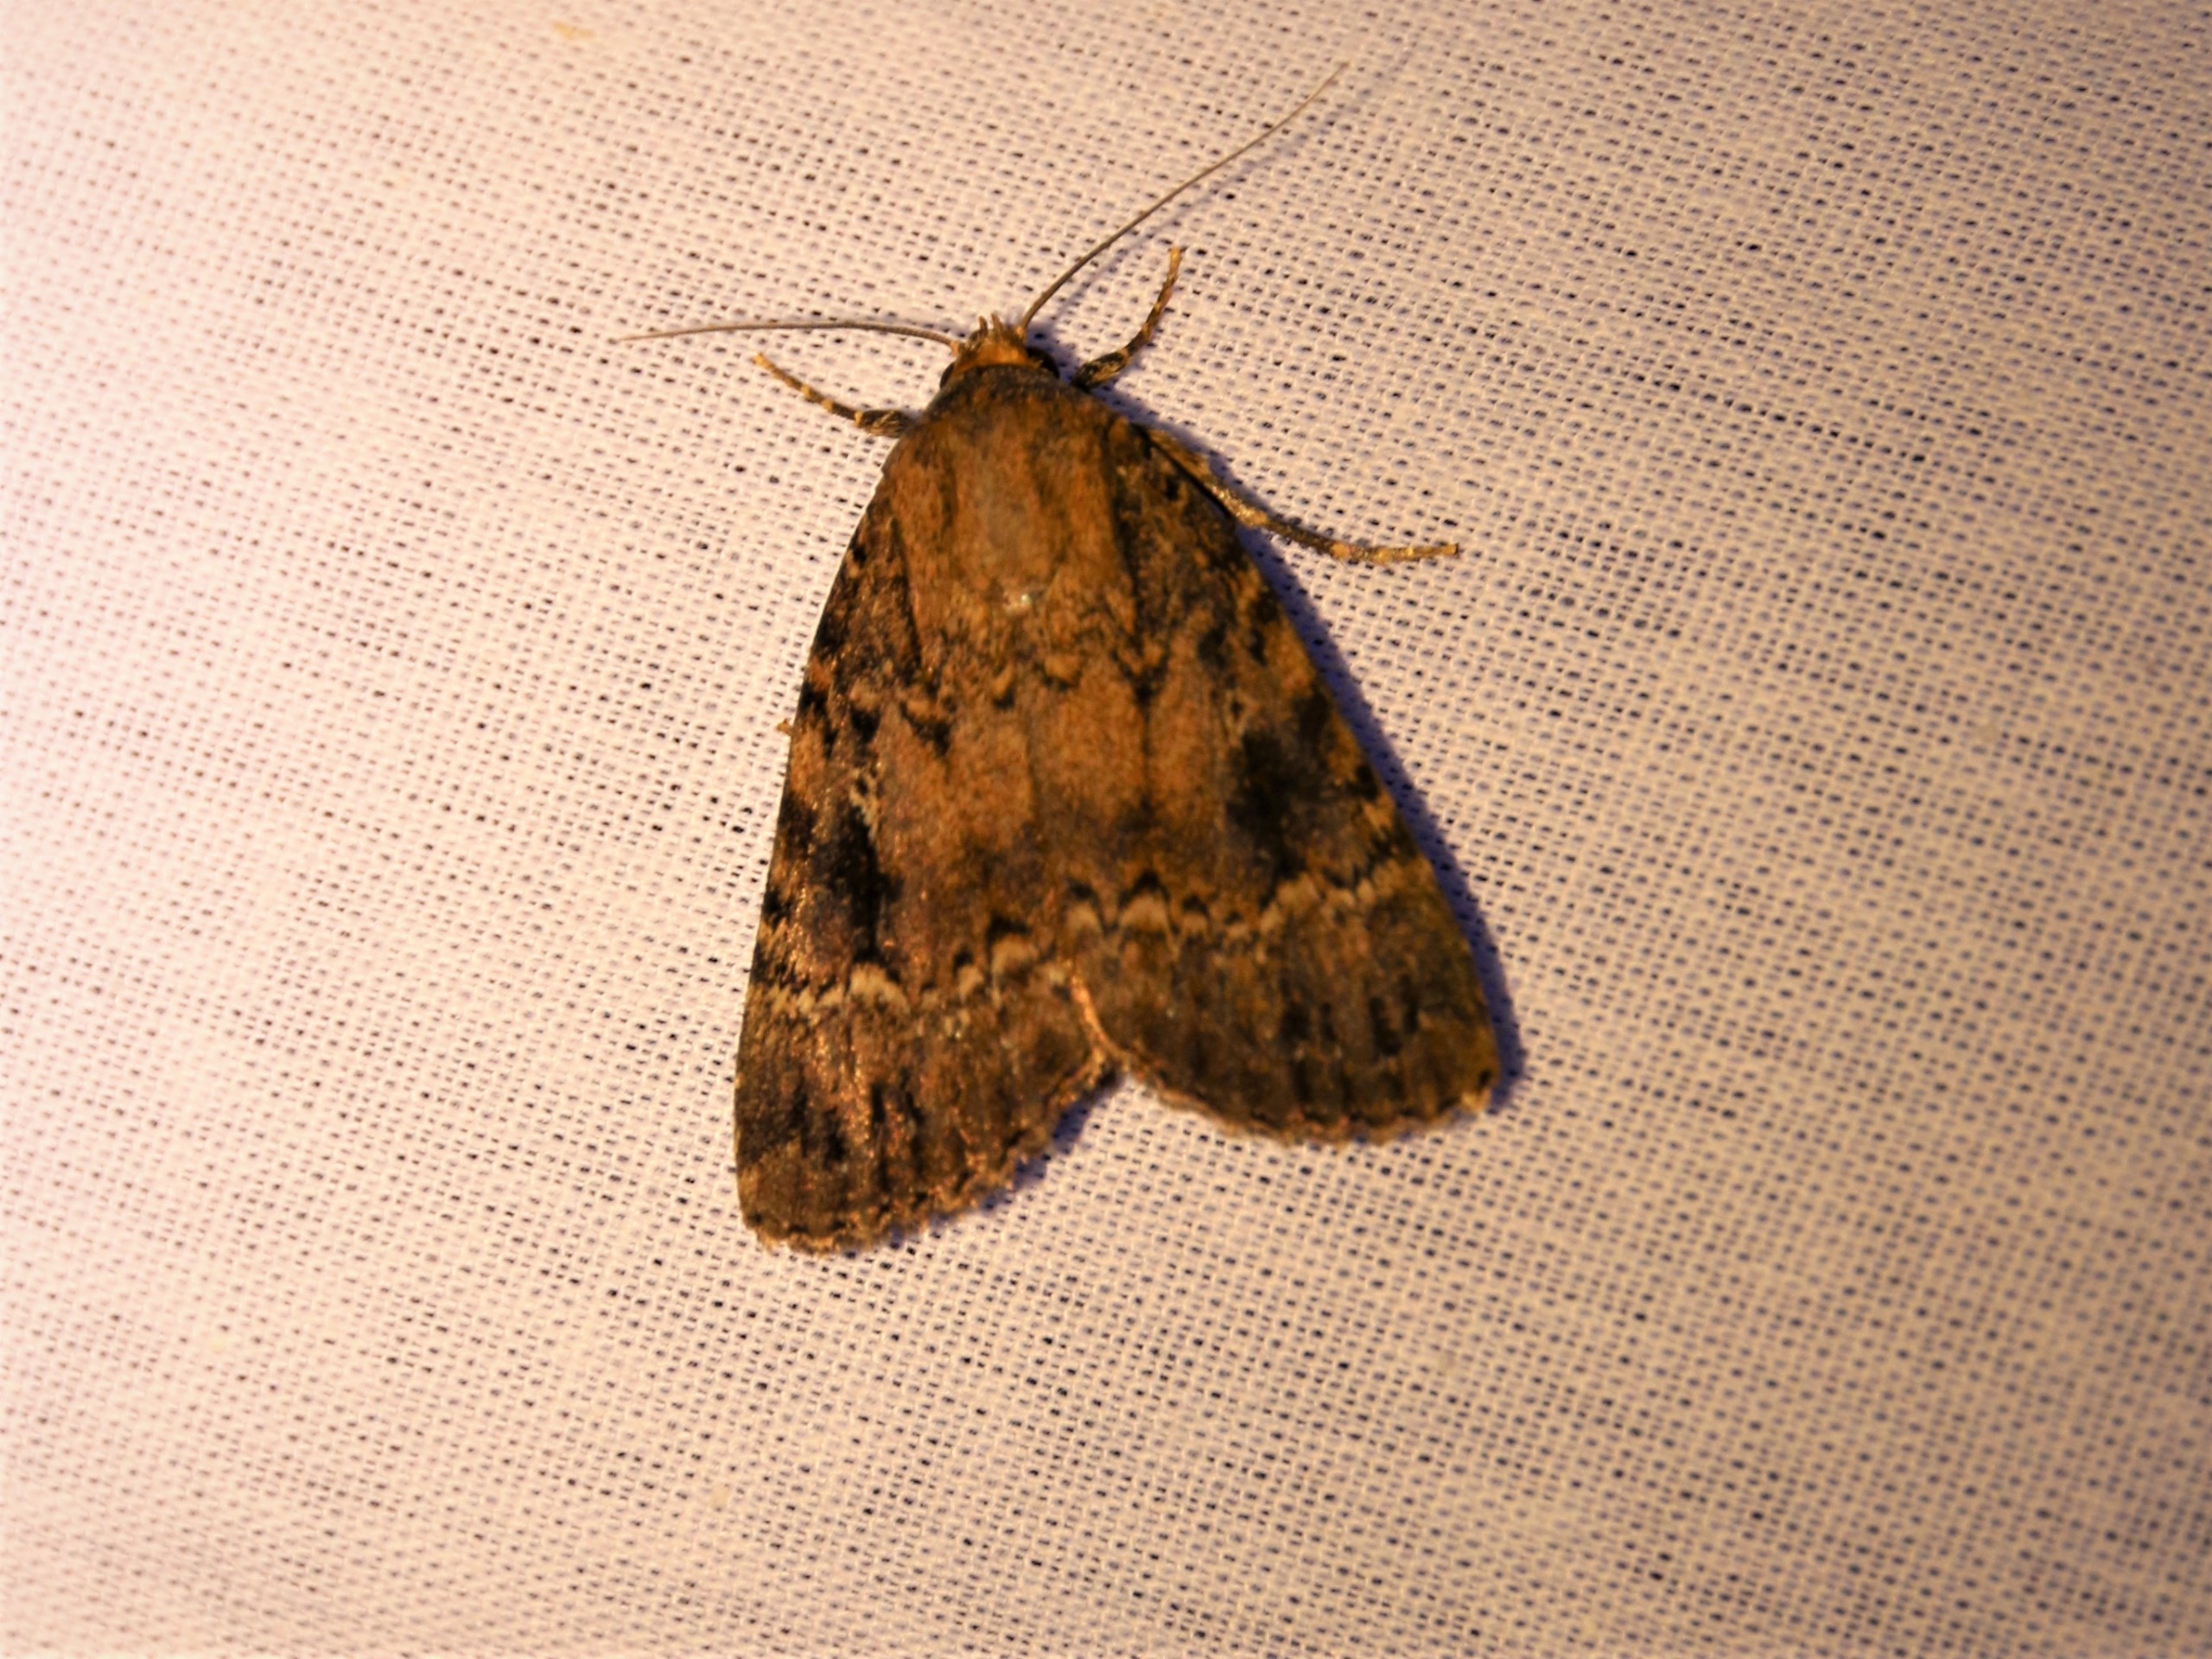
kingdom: Animalia
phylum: Arthropoda
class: Insecta
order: Lepidoptera
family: Noctuidae
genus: Amphipyra
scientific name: Amphipyra pyramidea
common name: Pyramideugle
